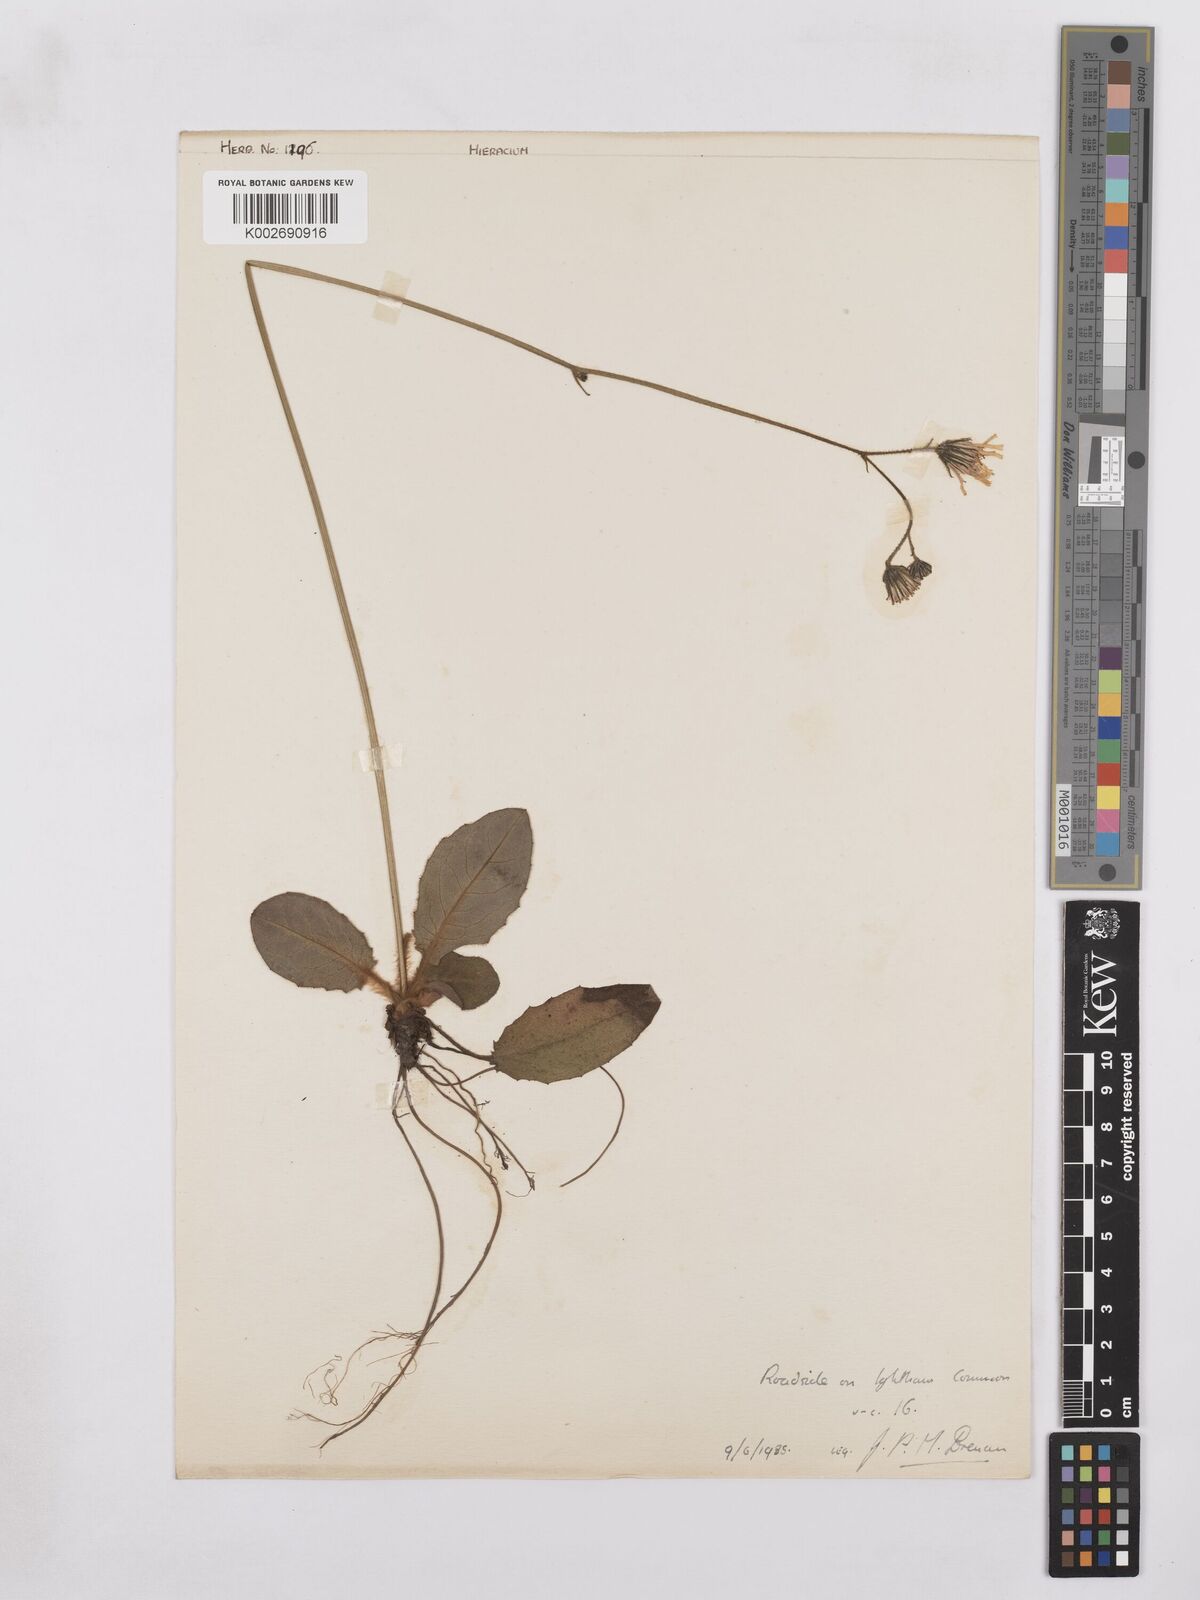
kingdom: Plantae
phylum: Tracheophyta
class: Magnoliopsida
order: Asterales
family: Asteraceae
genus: Hieracium
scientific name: Hieracium murorum
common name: Wall hawkweed
